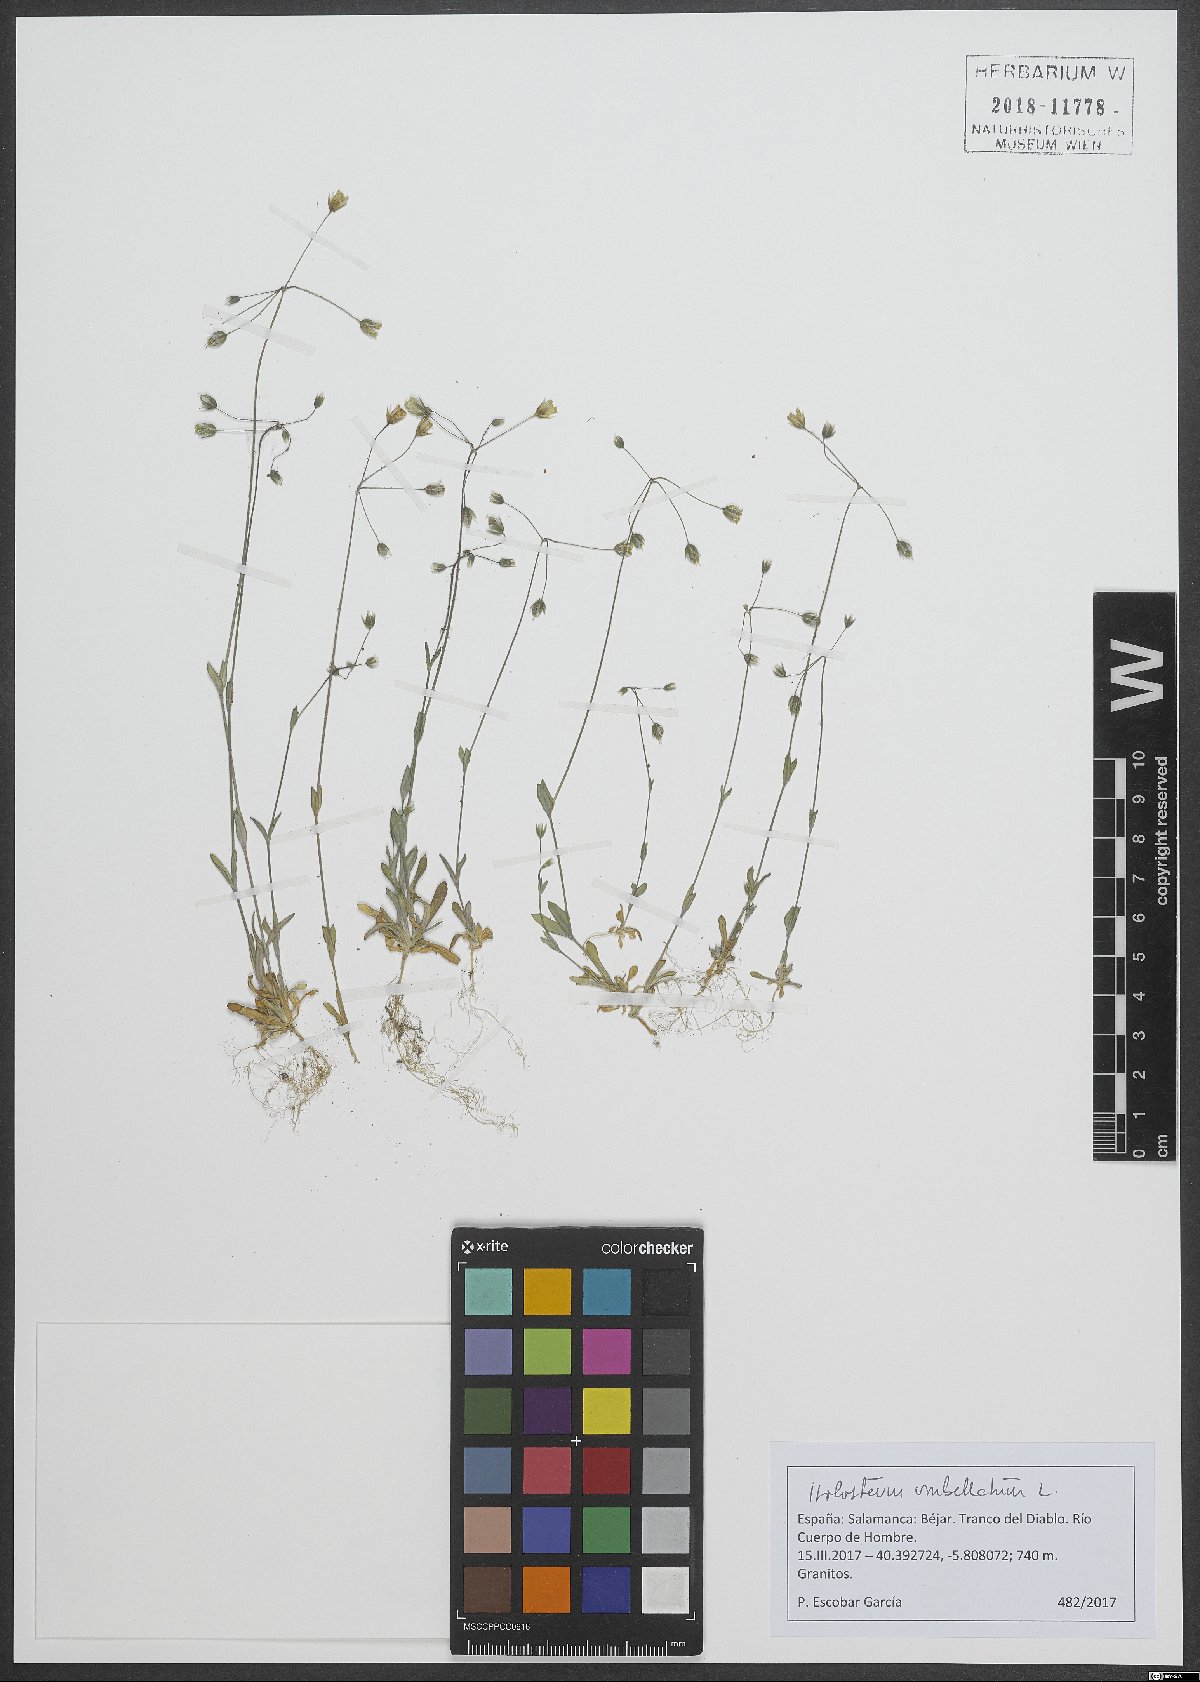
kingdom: Plantae
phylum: Tracheophyta
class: Magnoliopsida
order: Caryophyllales
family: Caryophyllaceae
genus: Holosteum
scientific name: Holosteum umbellatum
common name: Jagged chickweed
